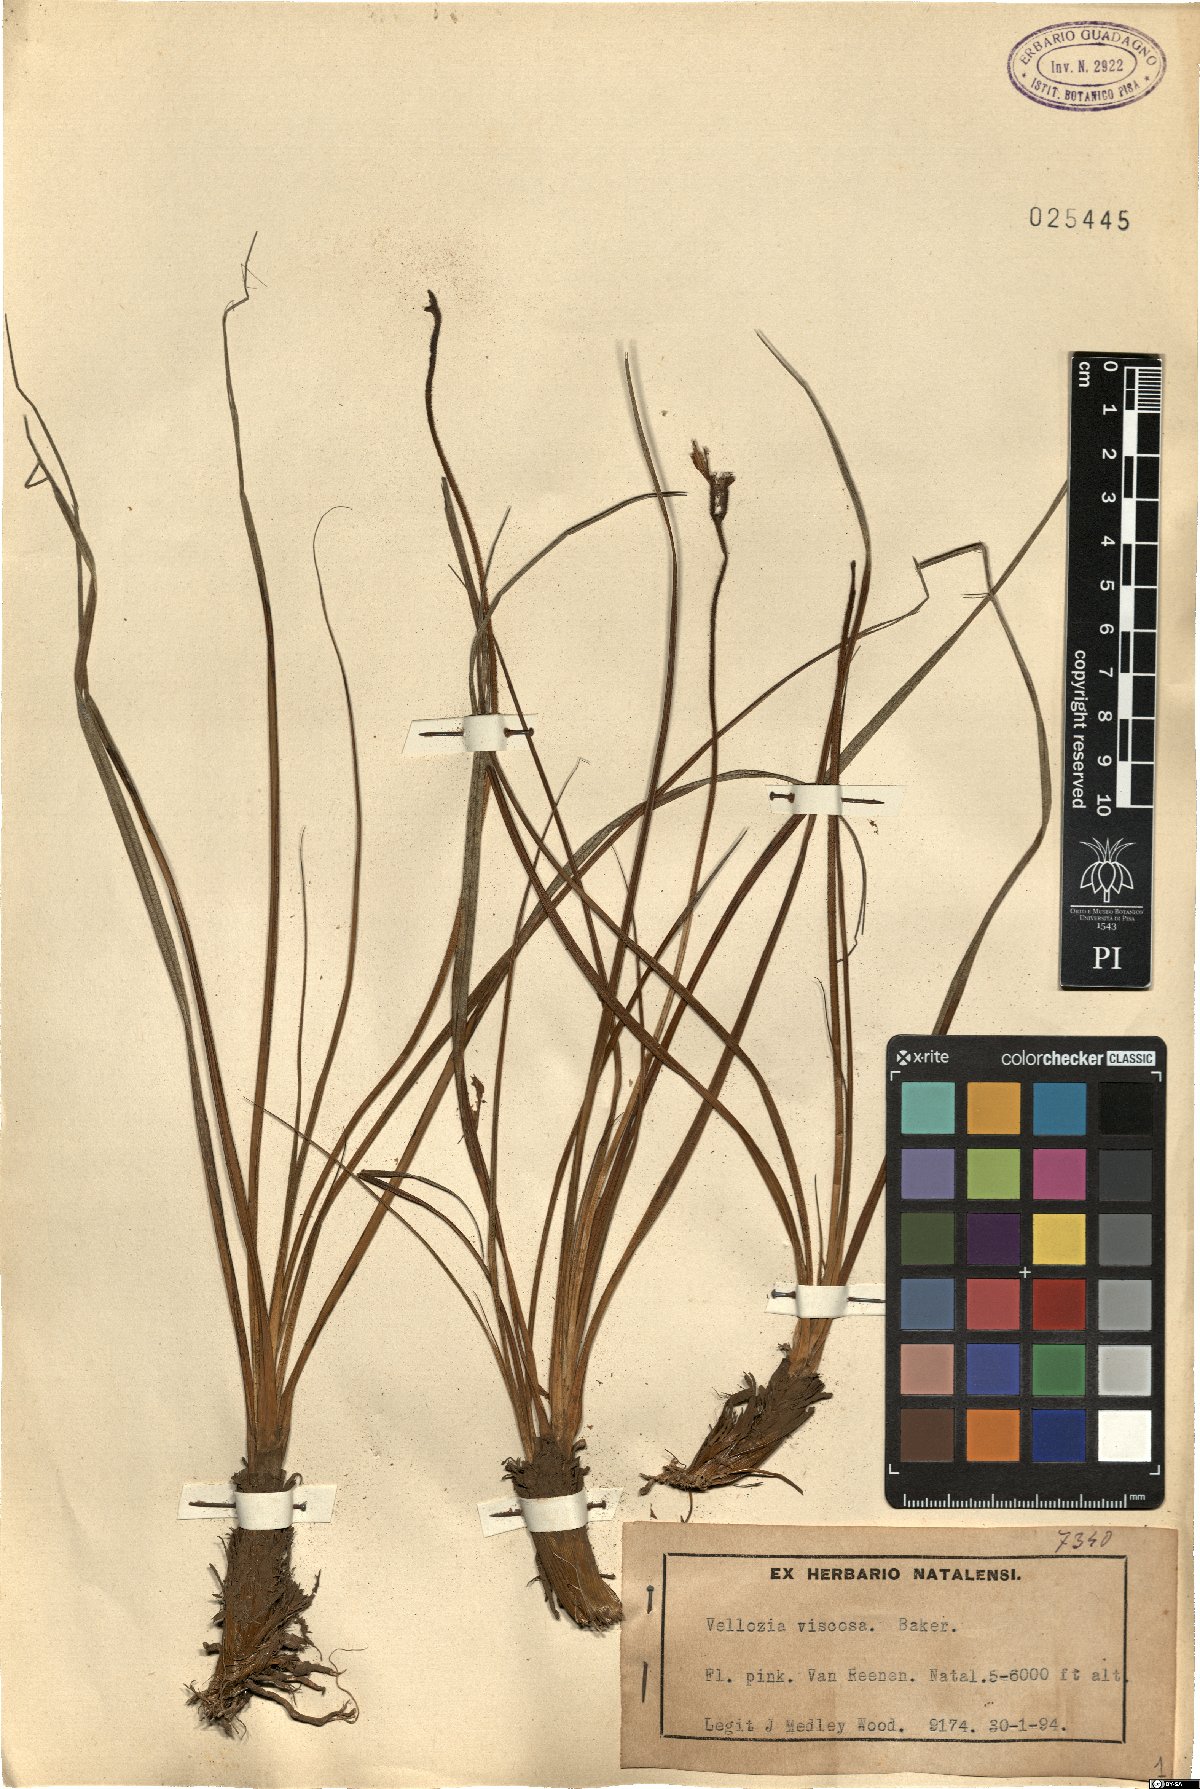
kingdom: Plantae
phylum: Tracheophyta
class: Liliopsida
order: Pandanales
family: Velloziaceae
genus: Xerophyta
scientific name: Xerophyta viscosa
